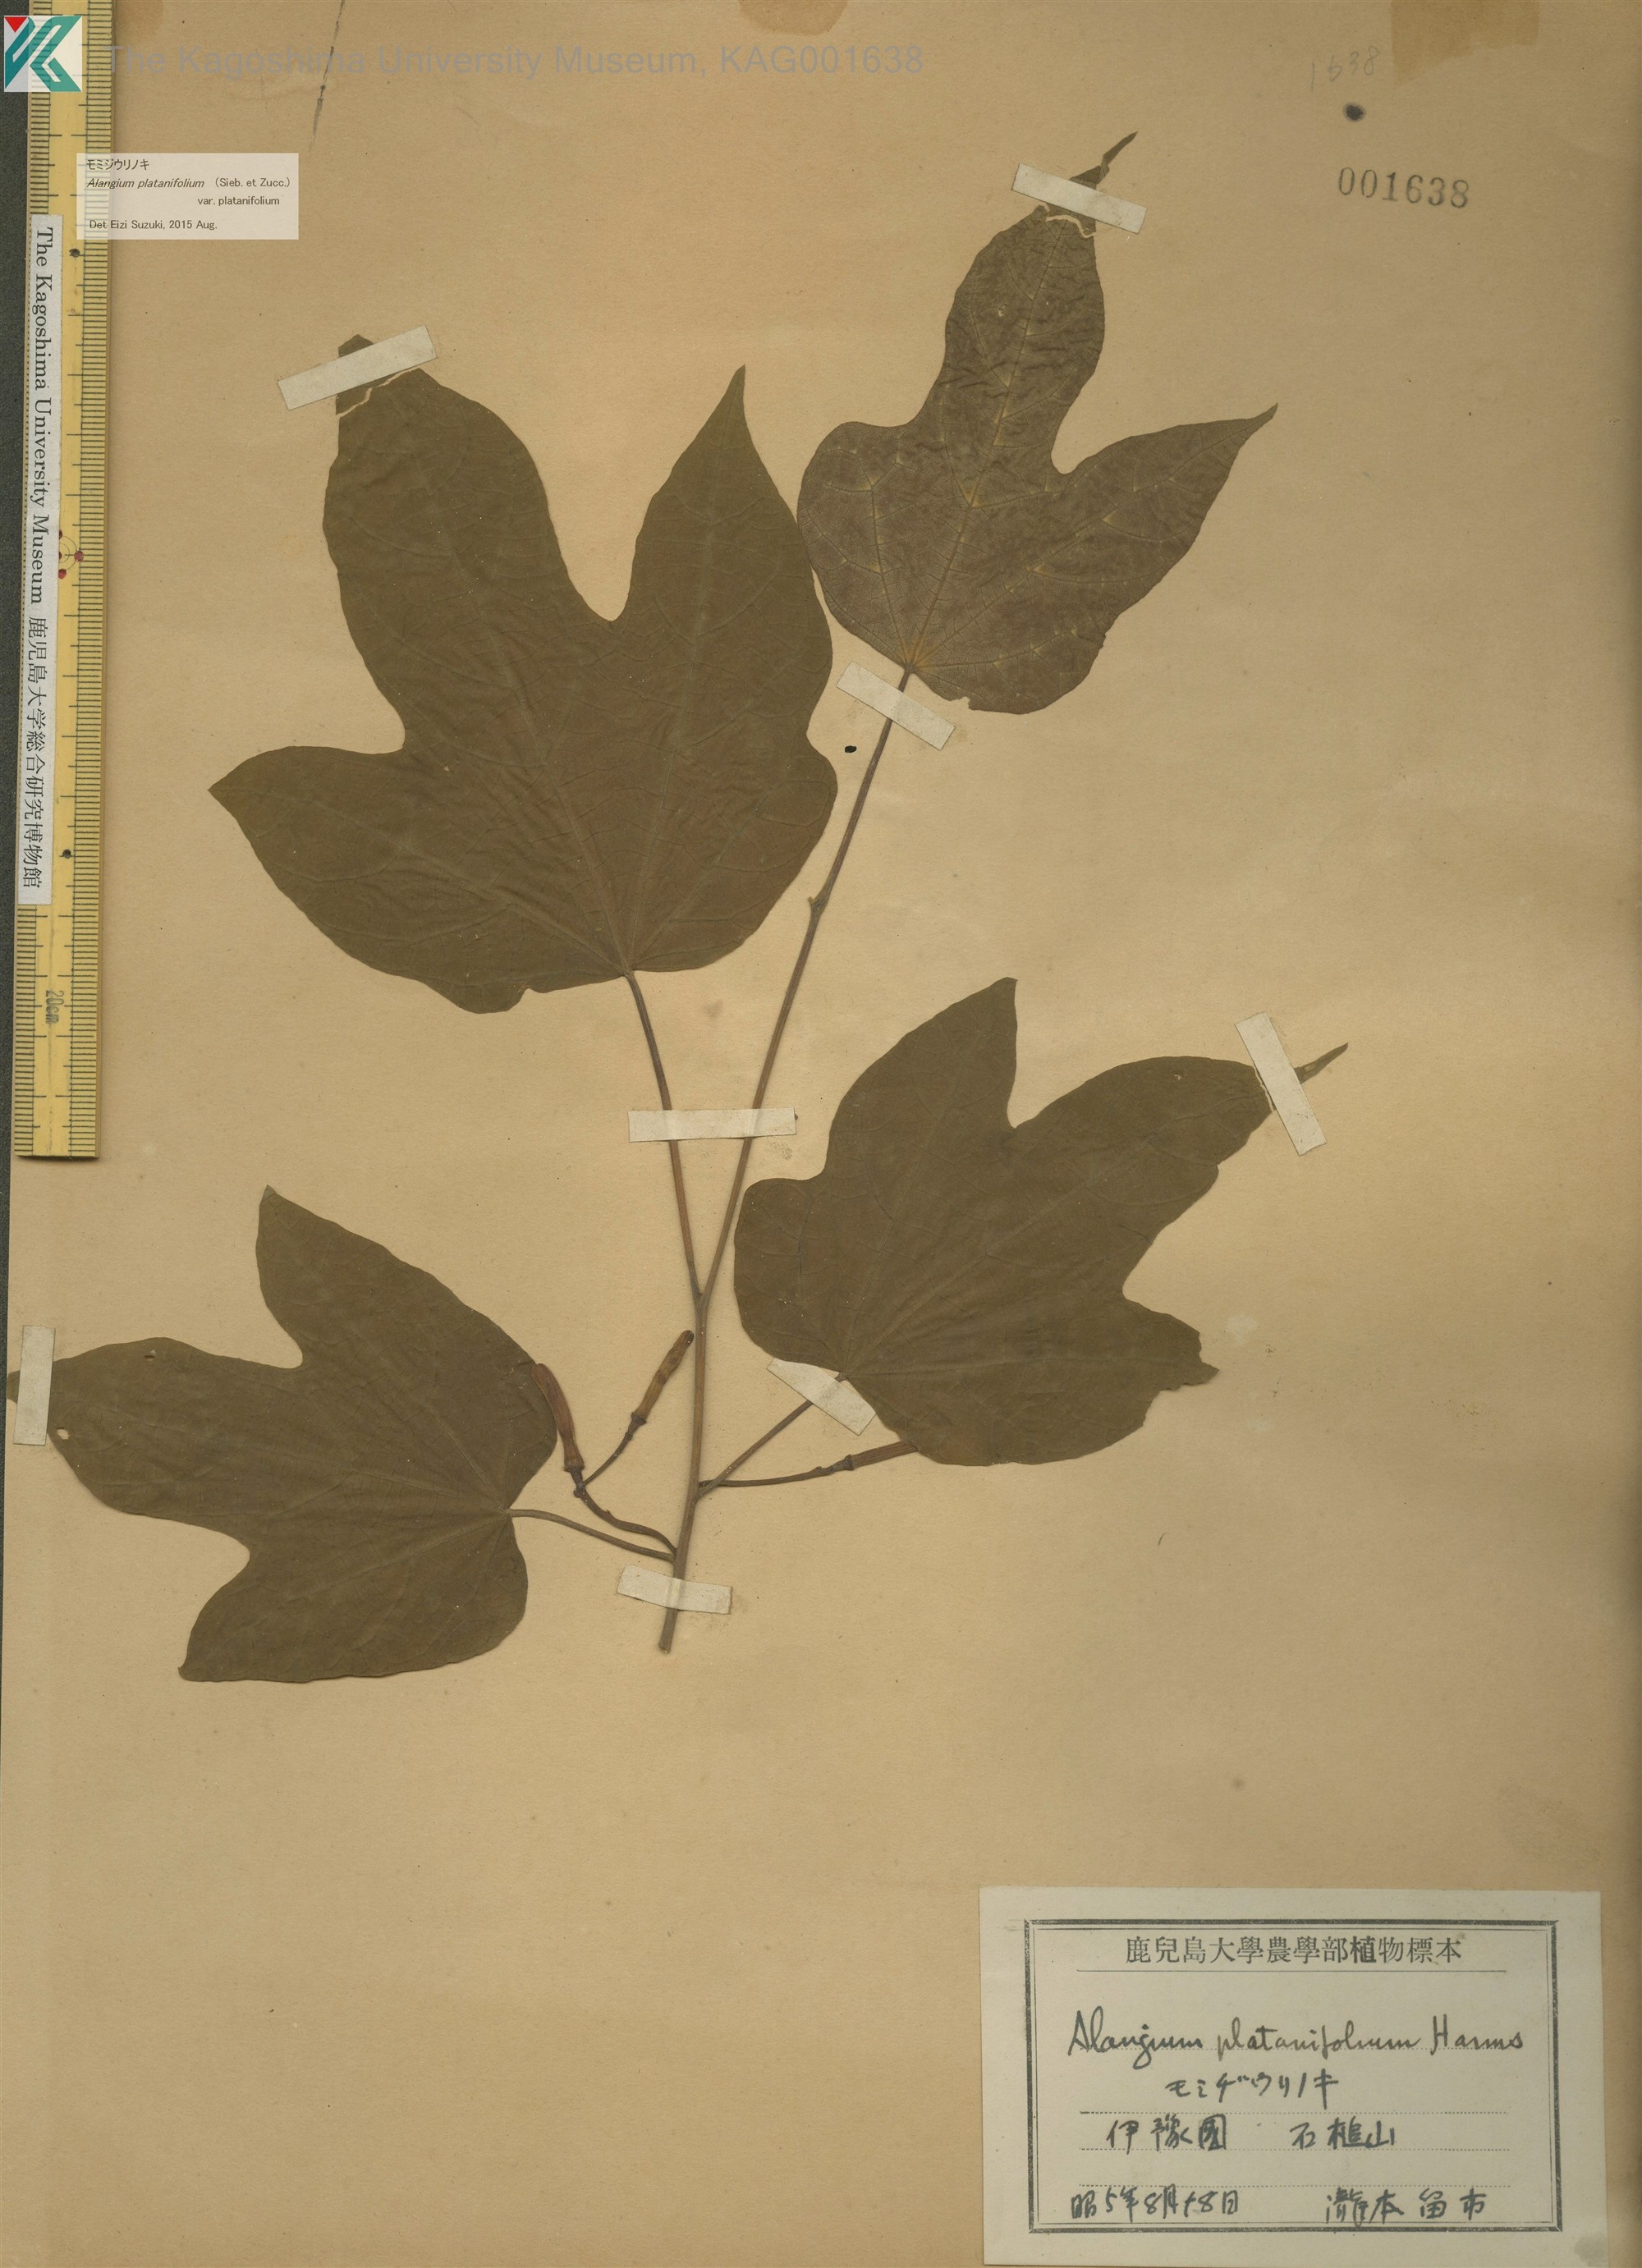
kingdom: Plantae
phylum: Tracheophyta
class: Magnoliopsida
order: Cornales
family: Cornaceae
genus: Alangium
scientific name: Alangium platanifolium
